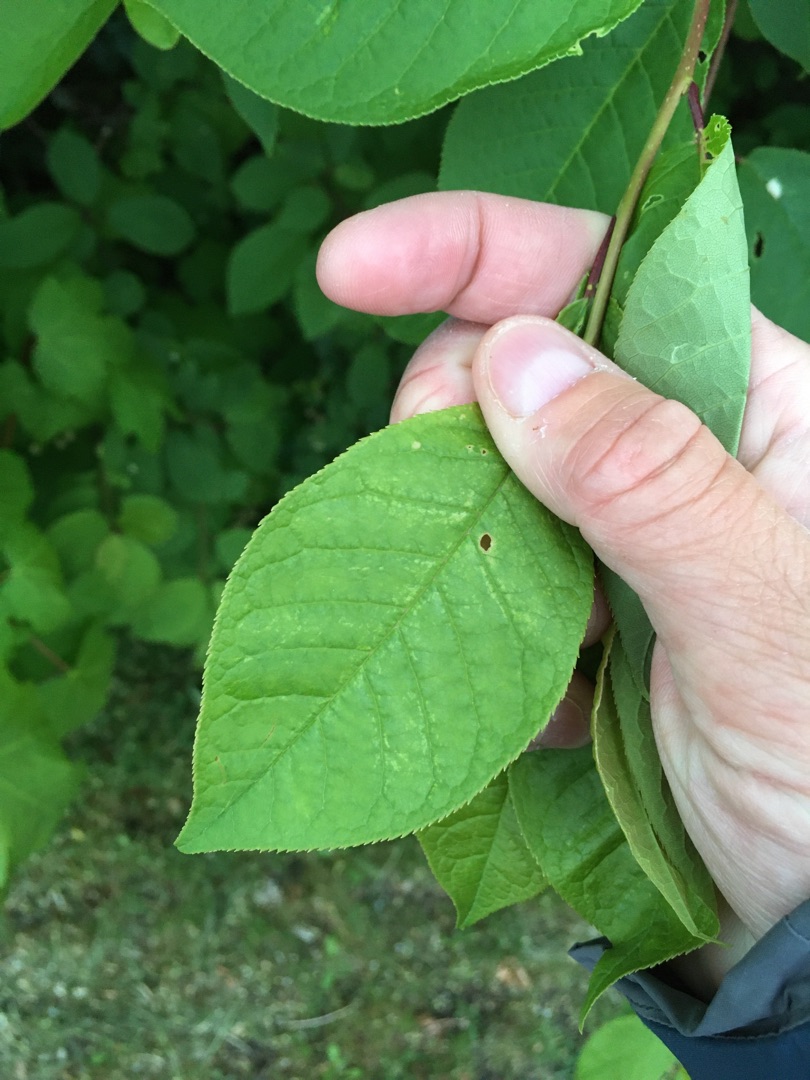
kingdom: Plantae
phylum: Tracheophyta
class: Magnoliopsida
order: Rosales
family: Rosaceae
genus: Prunus
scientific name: Prunus padus
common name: Almindelig hæg
